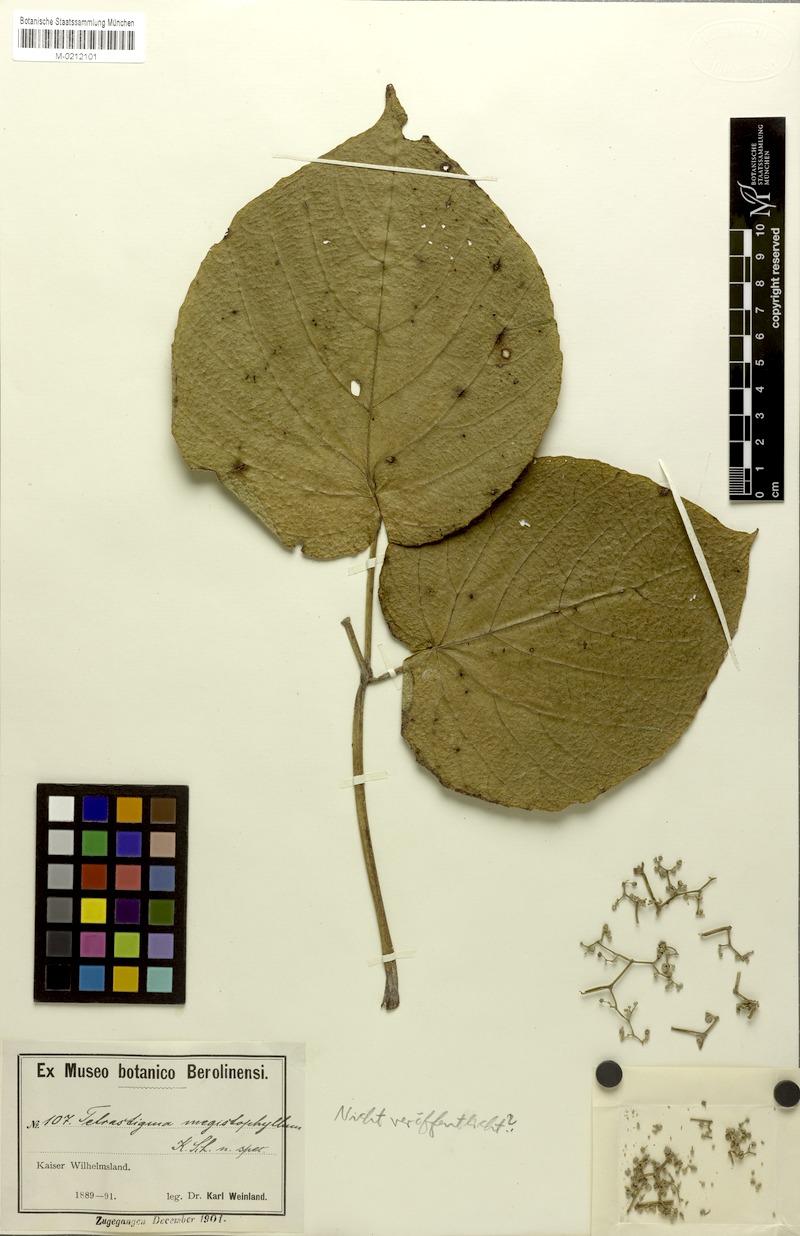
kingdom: Plantae
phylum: Tracheophyta
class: Magnoliopsida
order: Vitales
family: Vitaceae
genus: Cayratia
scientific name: Cayratia acris
